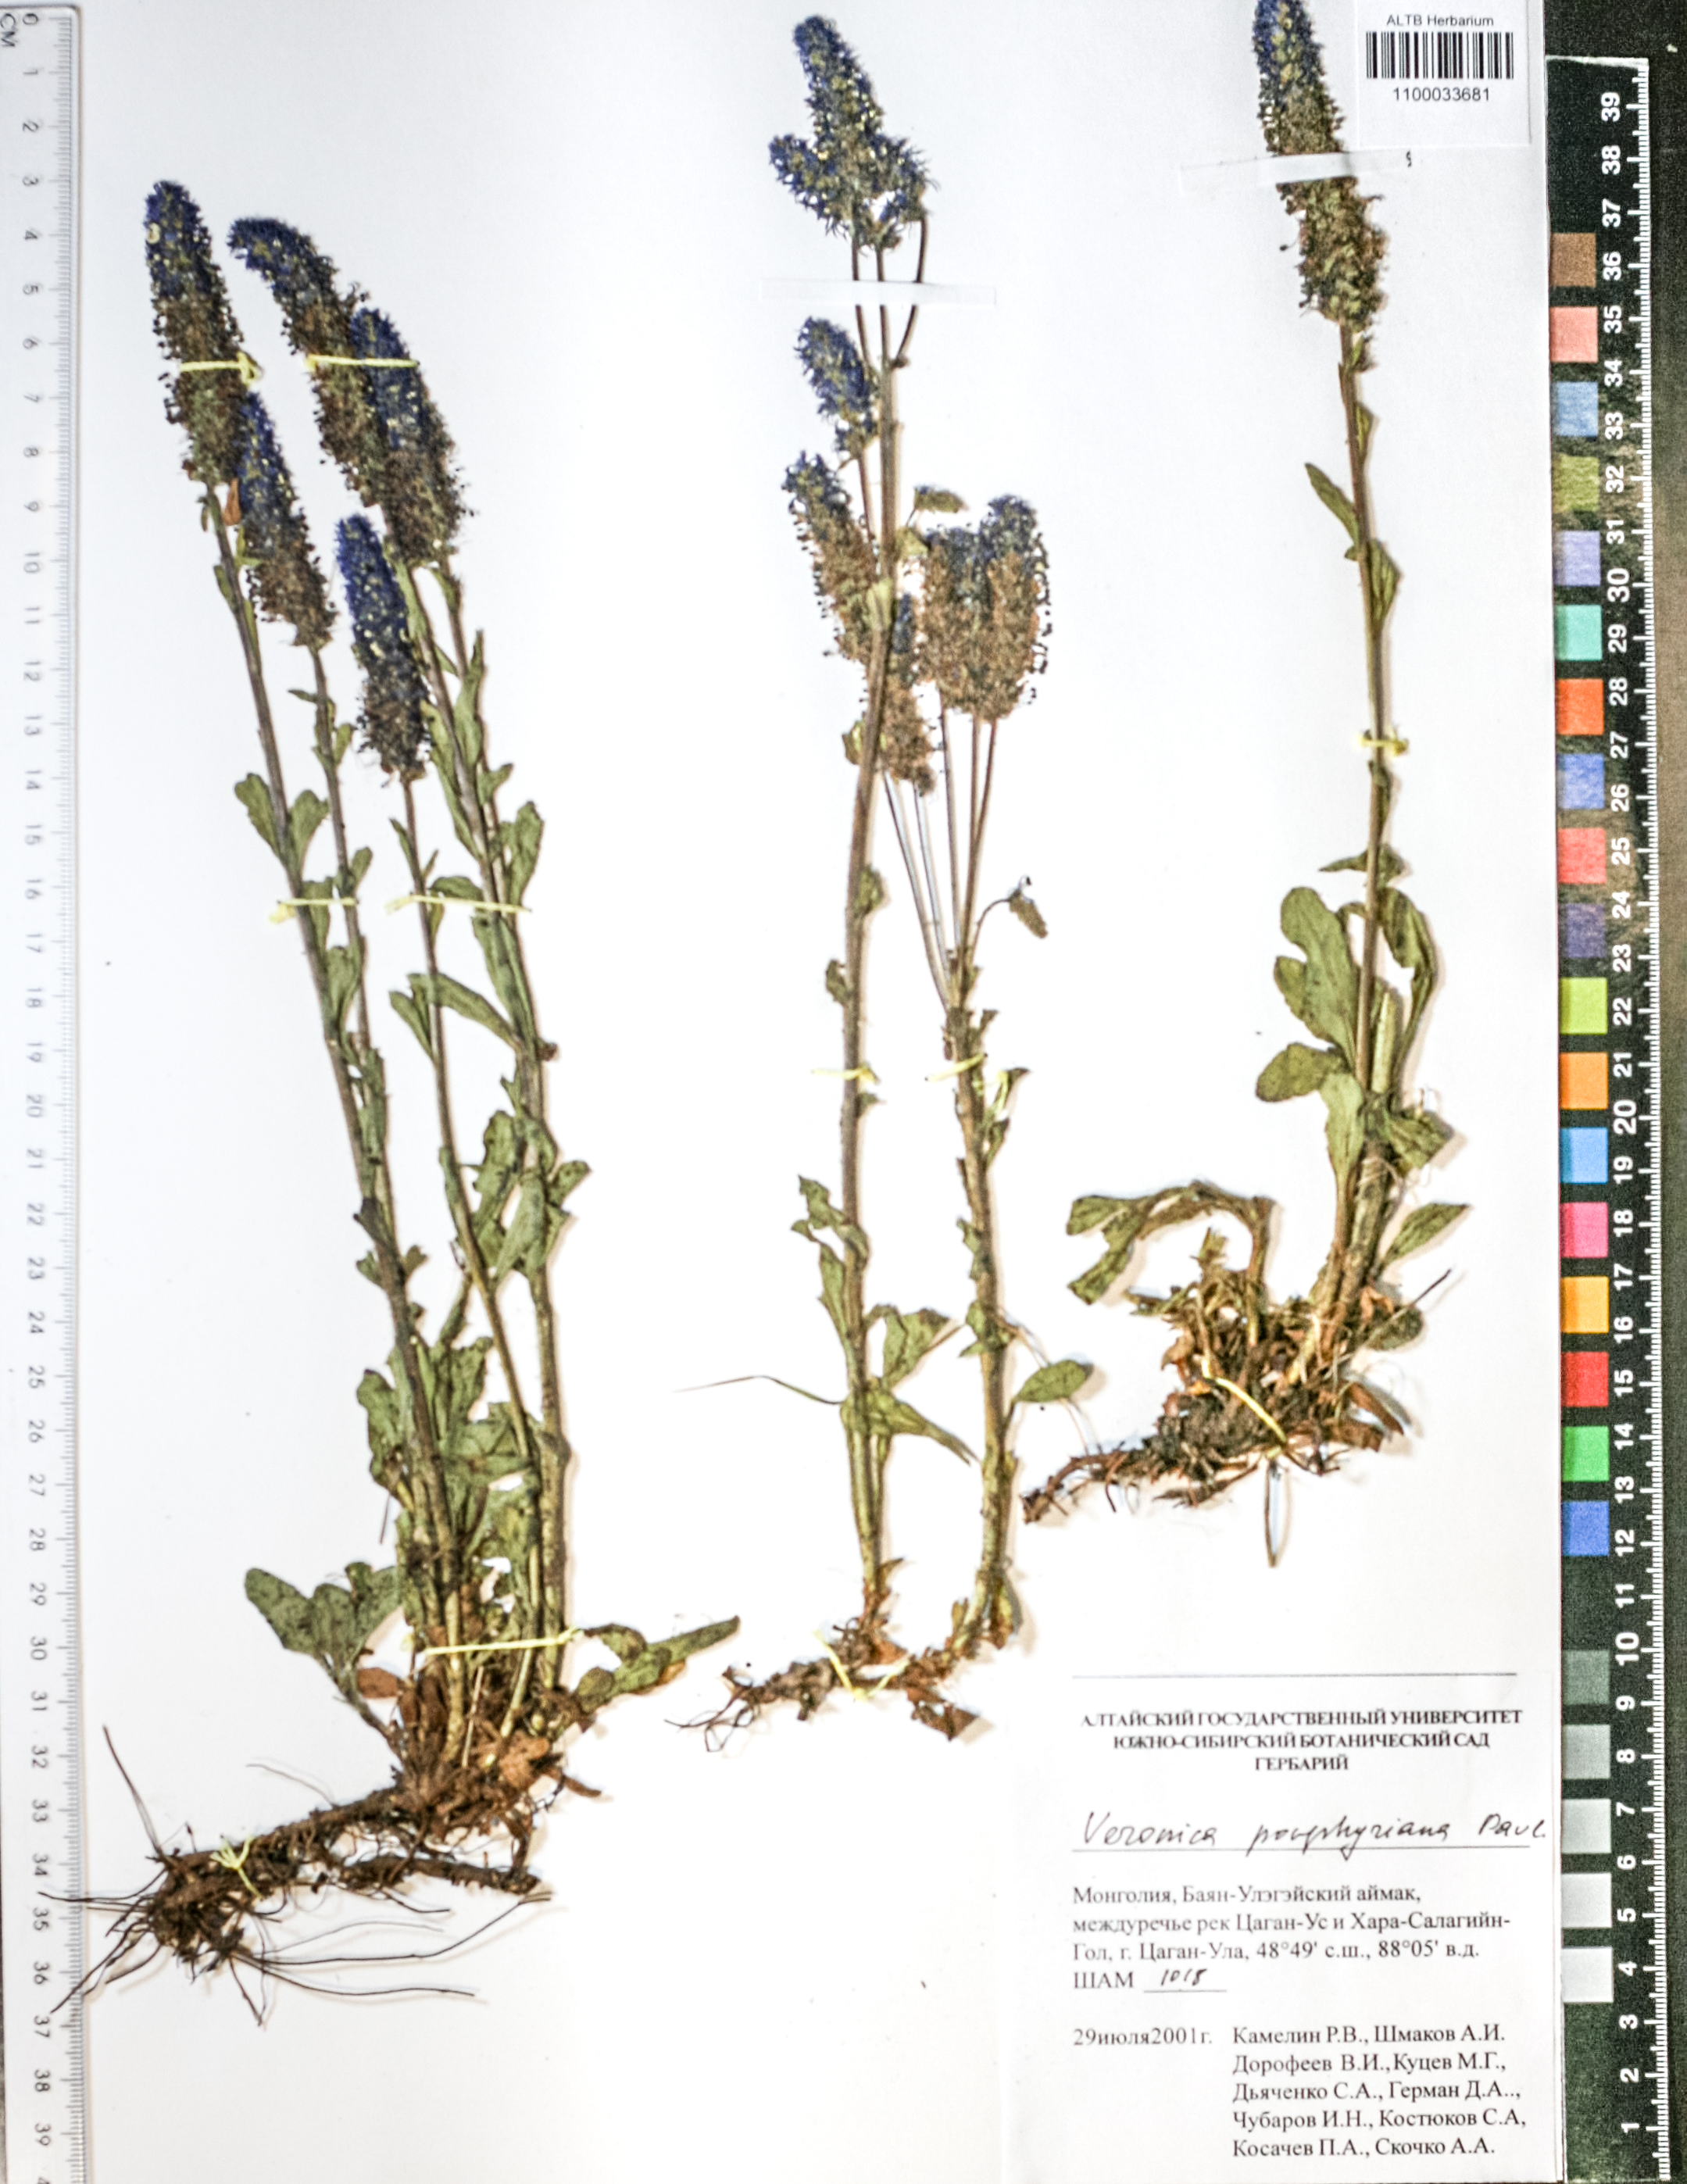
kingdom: Plantae
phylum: Tracheophyta
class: Magnoliopsida
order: Lamiales
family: Plantaginaceae
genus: Veronica
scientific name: Veronica porphyriana
